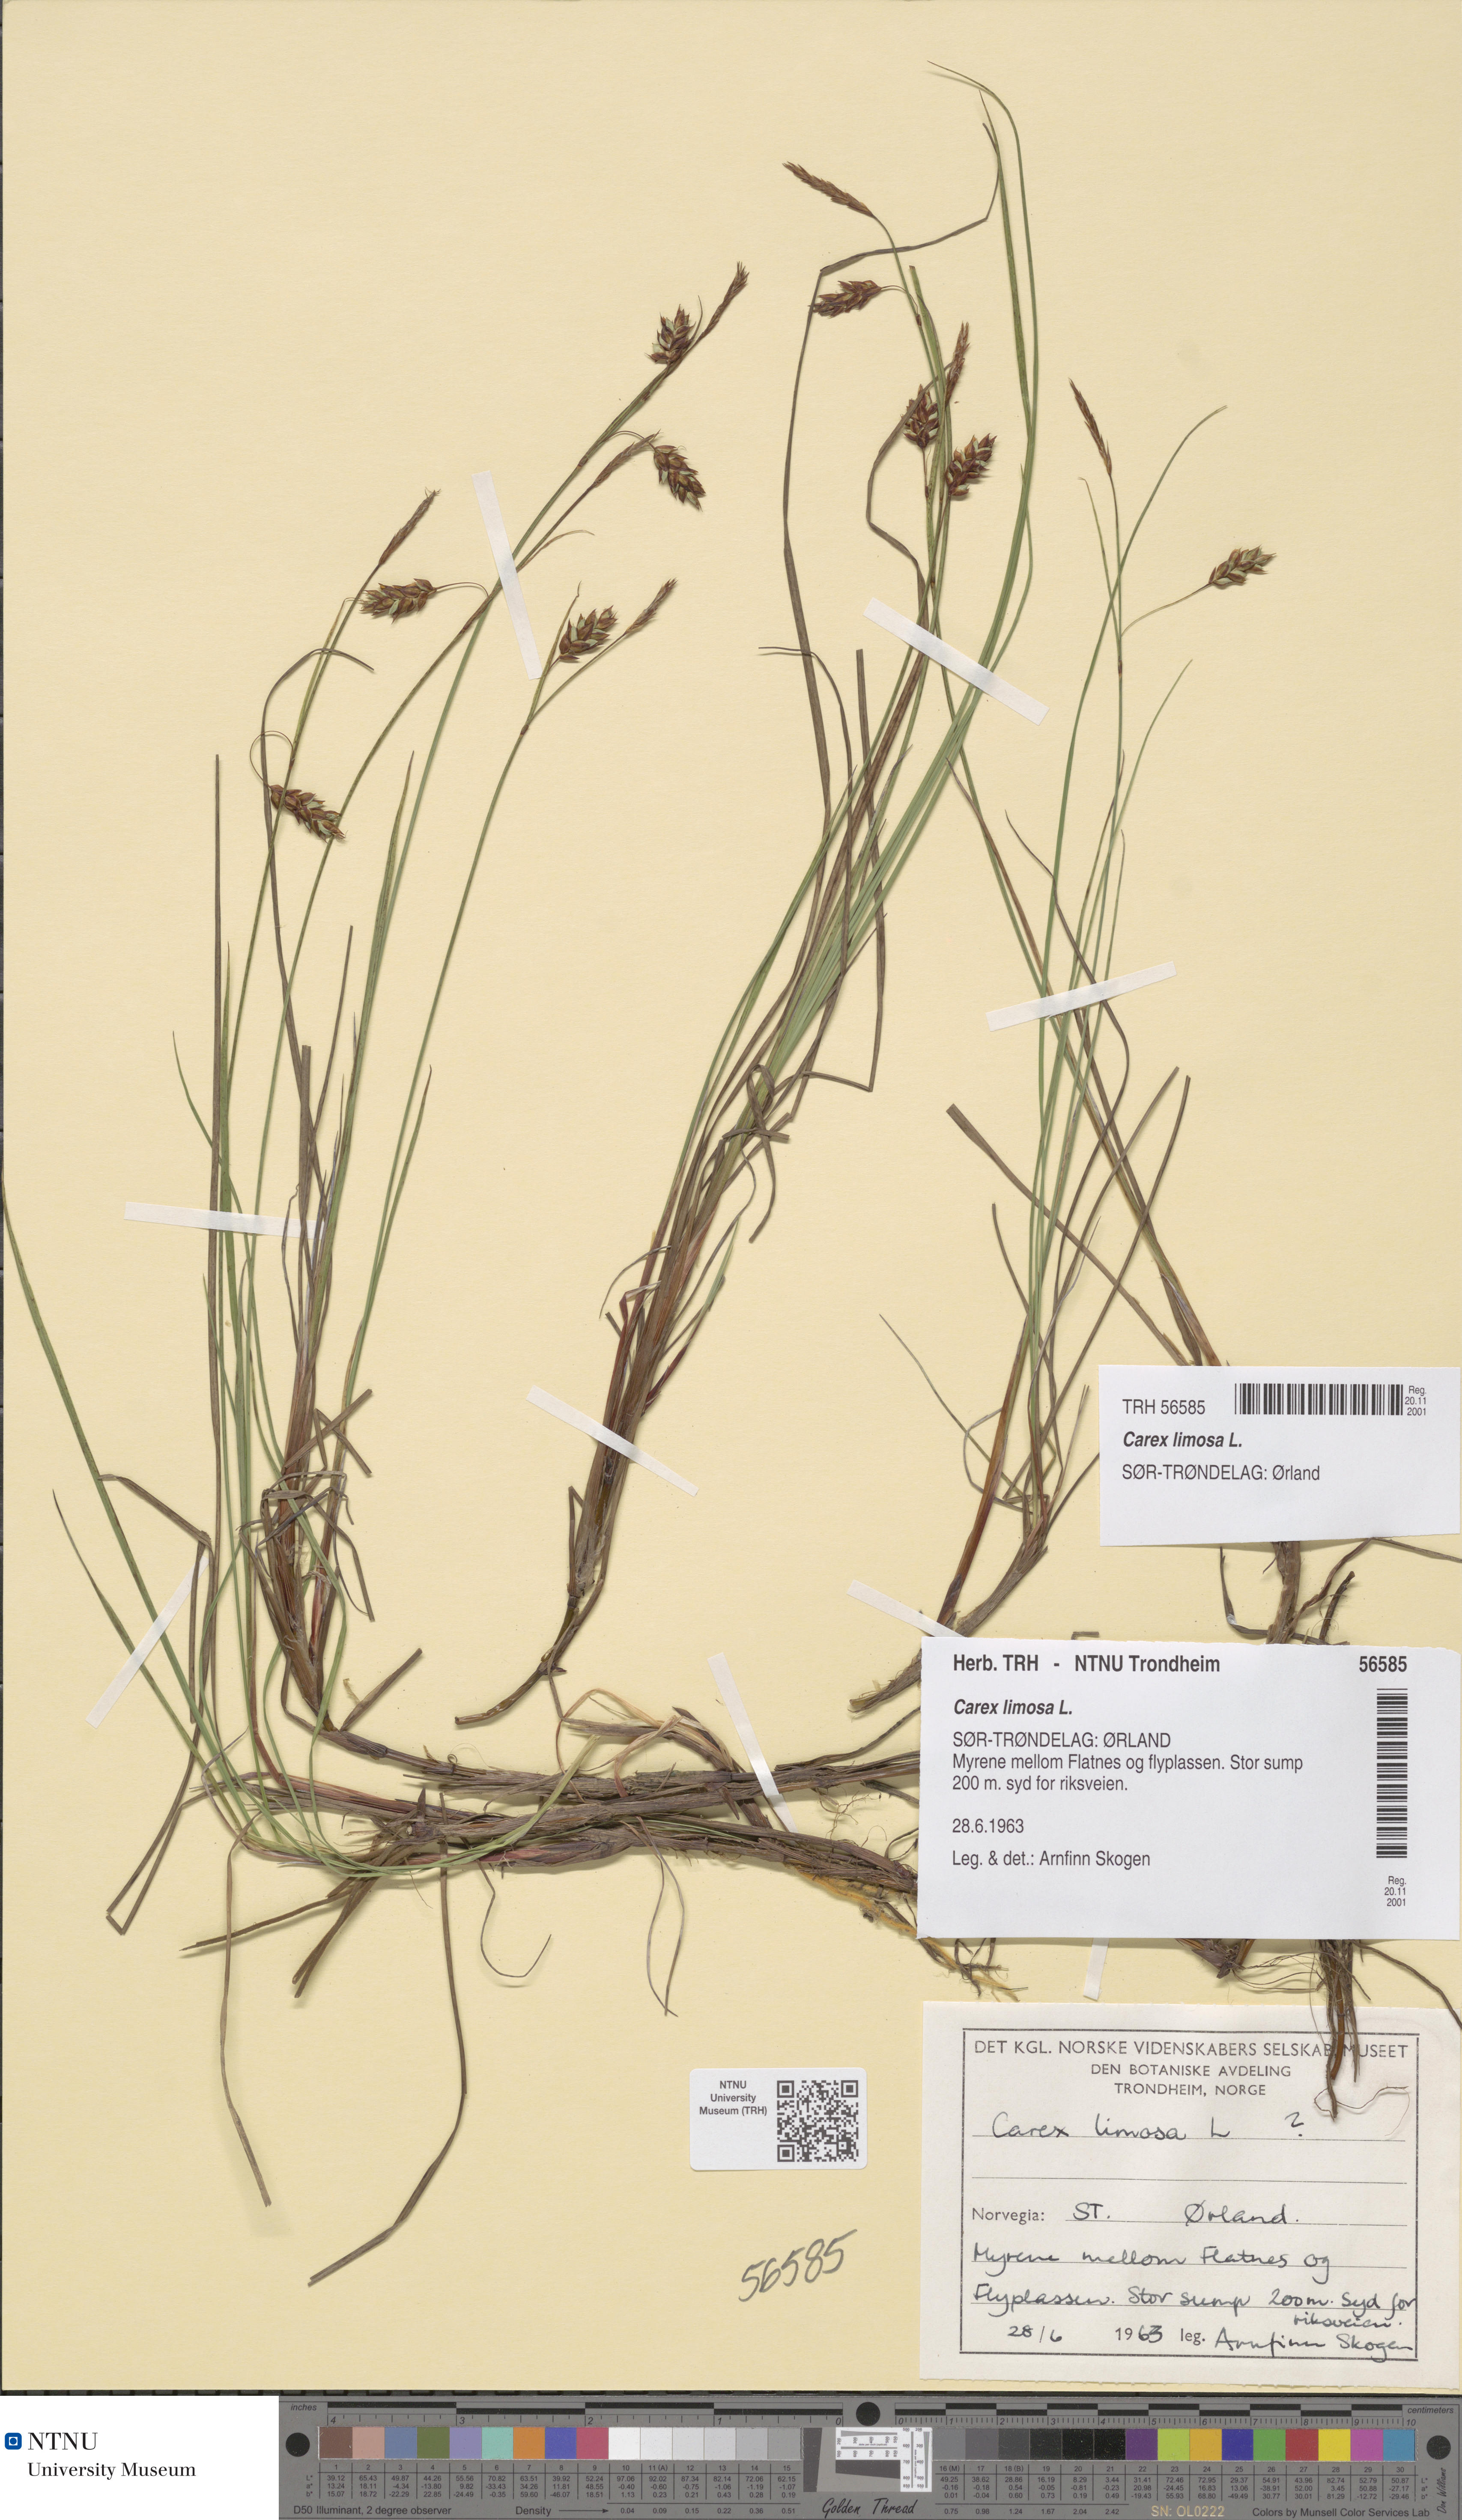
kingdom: Plantae
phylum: Tracheophyta
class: Liliopsida
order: Poales
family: Cyperaceae
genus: Carex
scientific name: Carex limosa
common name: Bog sedge
